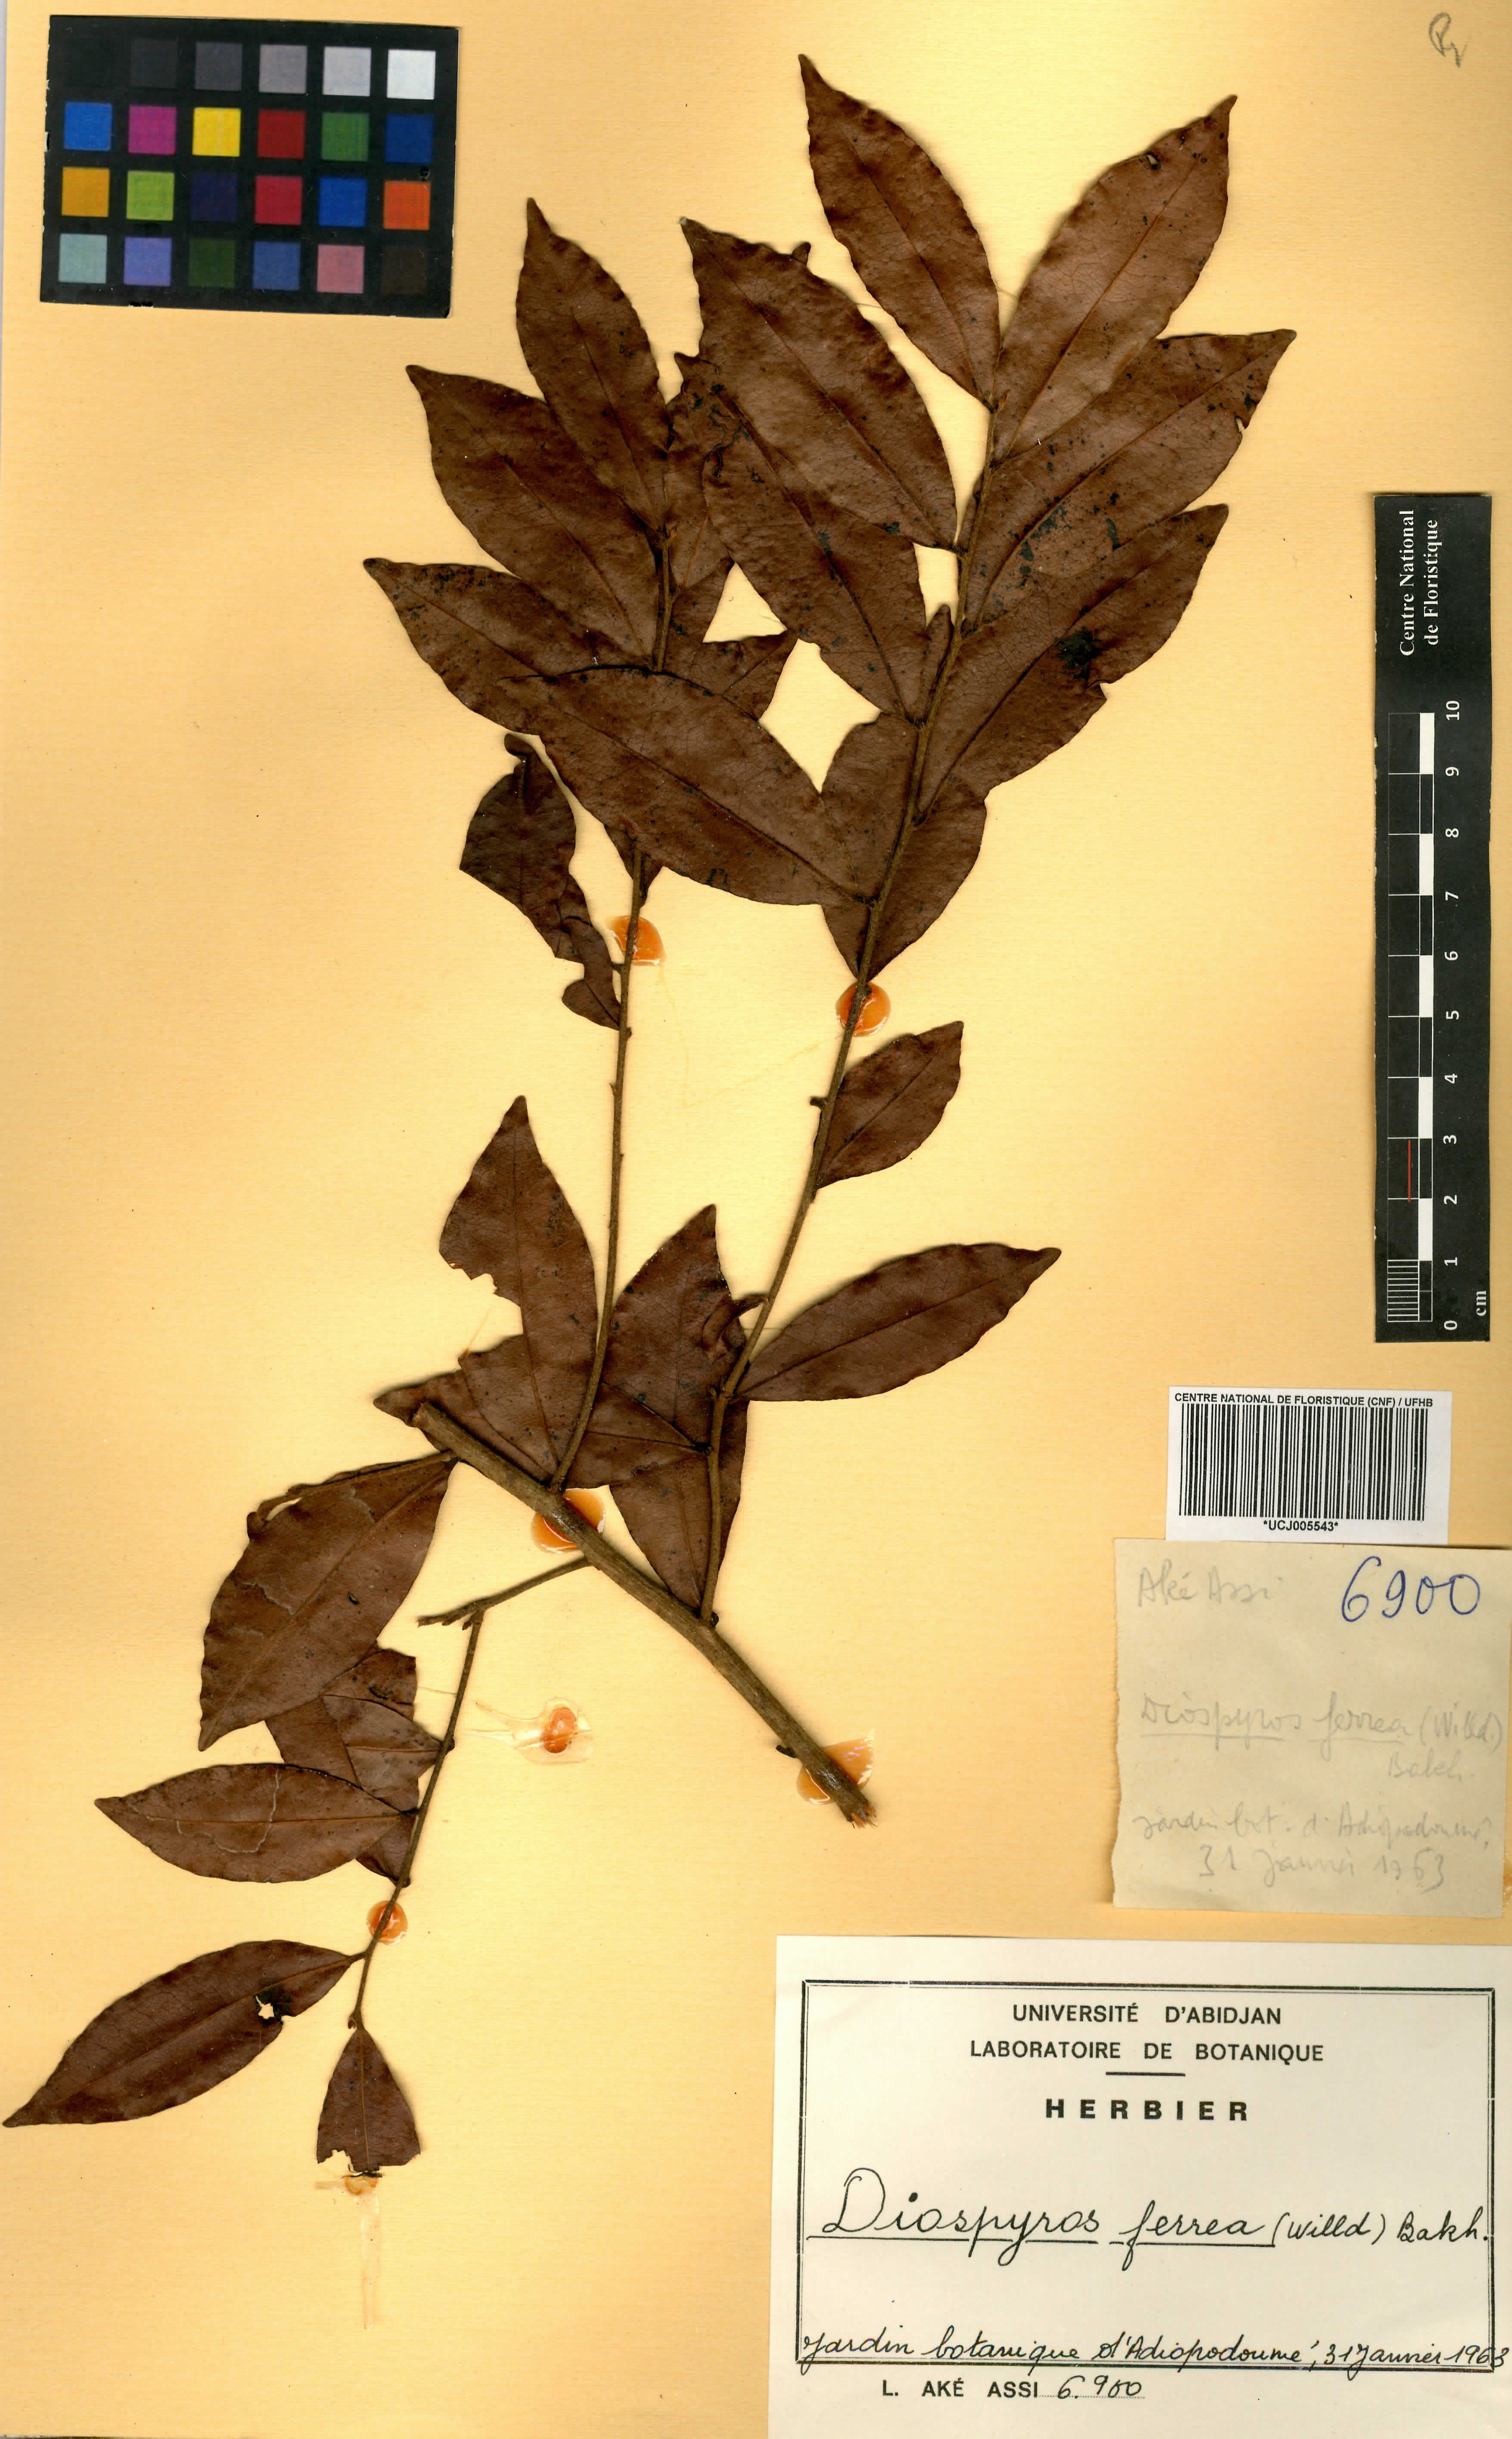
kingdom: Plantae
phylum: Tracheophyta
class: Magnoliopsida
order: Ericales
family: Ebenaceae
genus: Diospyros
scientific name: Diospyros ferrea
